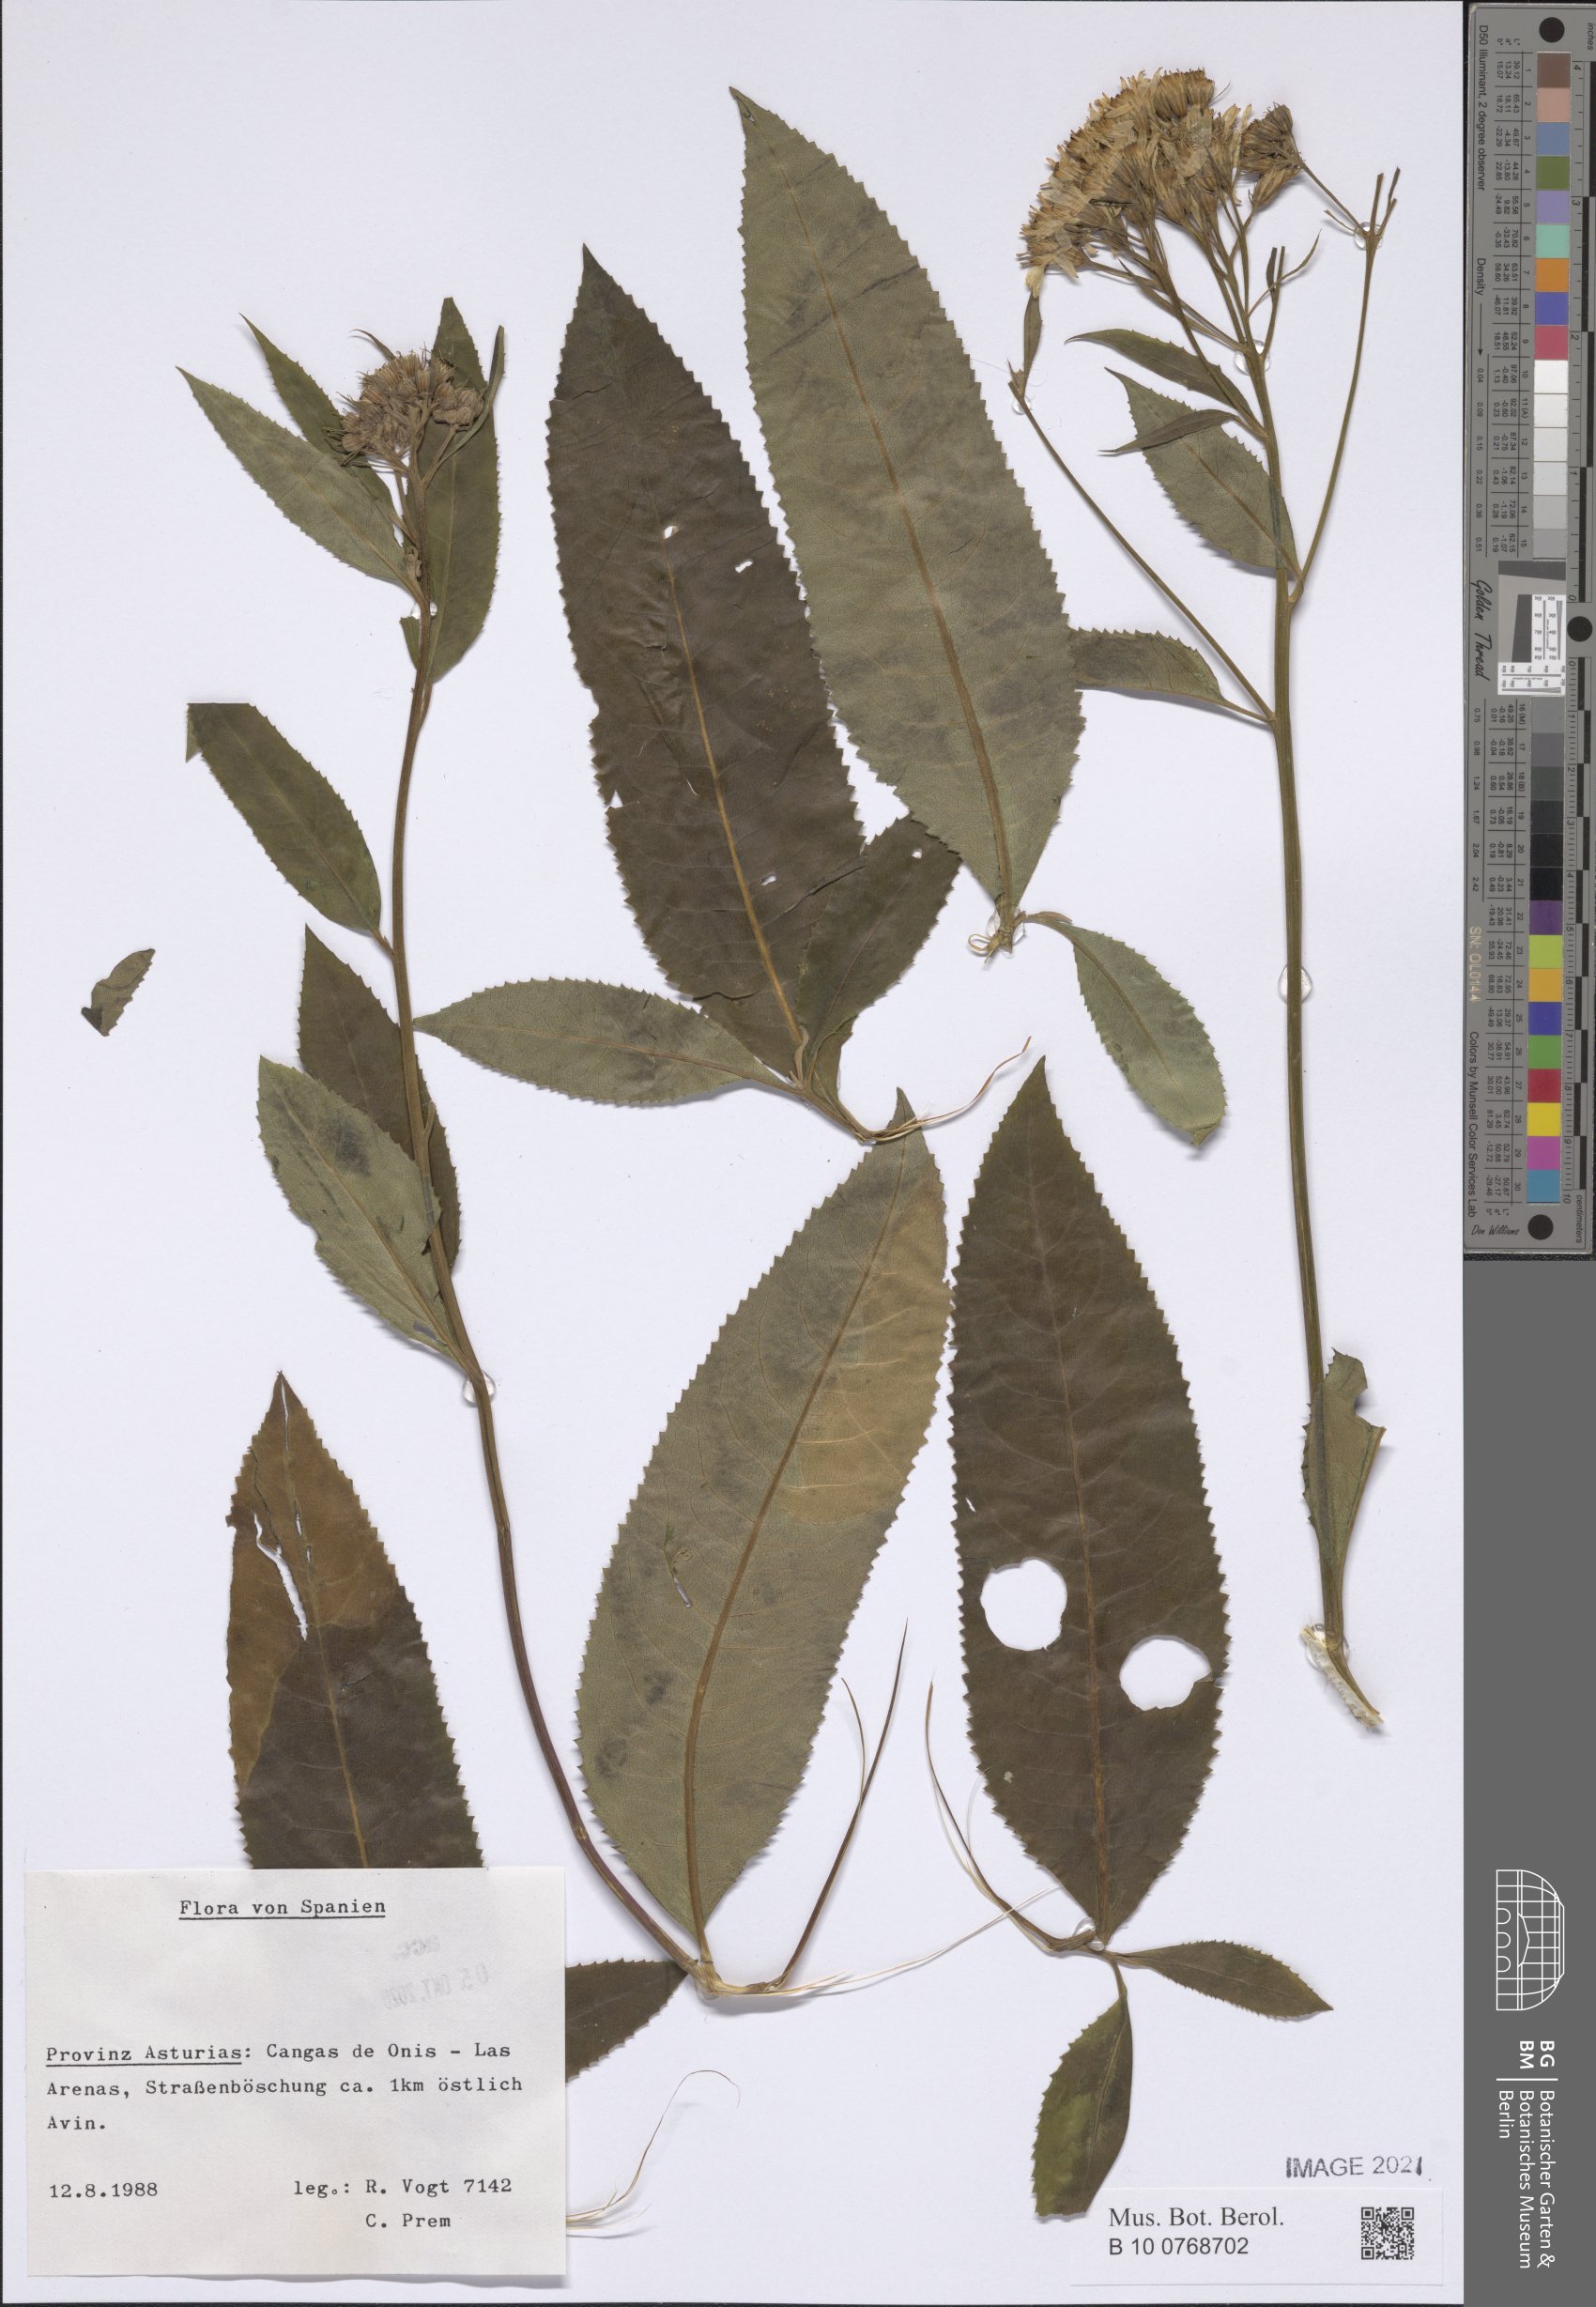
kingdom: Plantae
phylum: Tracheophyta
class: Magnoliopsida
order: Asterales
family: Asteraceae
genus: Senecio
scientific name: Senecio
